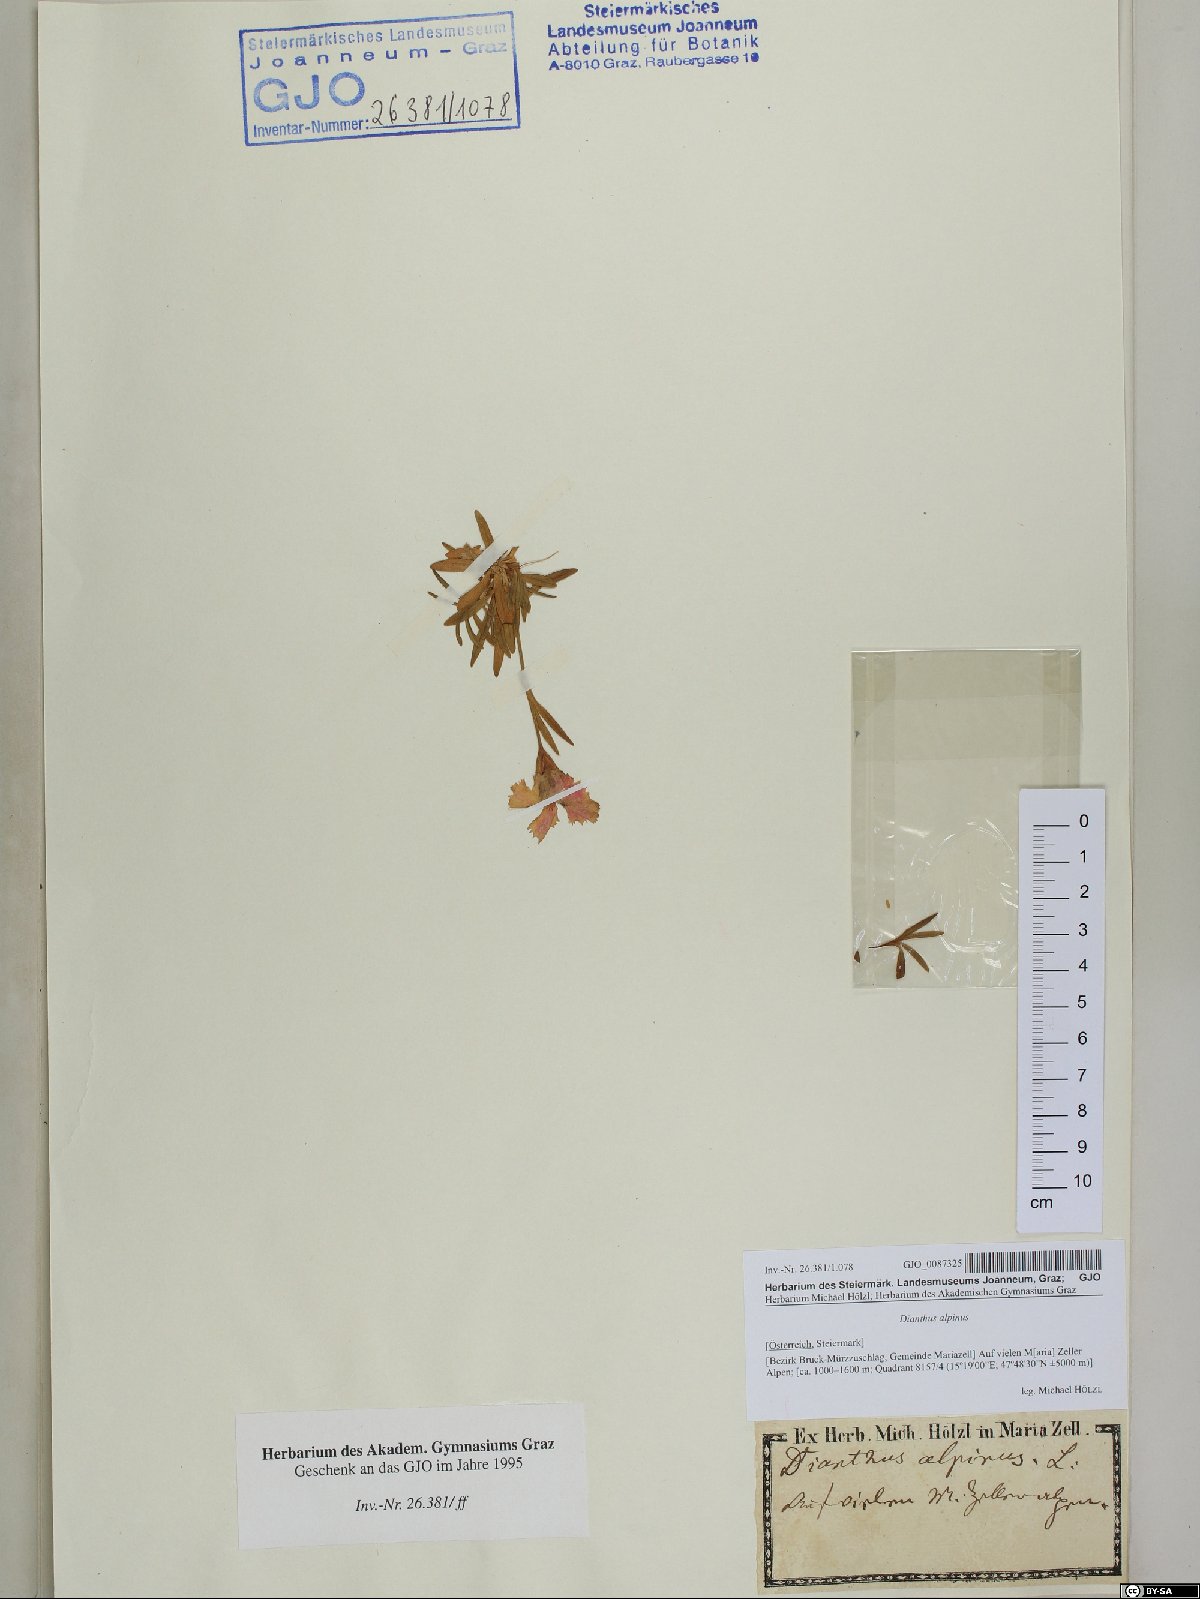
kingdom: Plantae
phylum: Tracheophyta
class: Magnoliopsida
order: Caryophyllales
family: Caryophyllaceae
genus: Dianthus
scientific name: Dianthus alpinus
